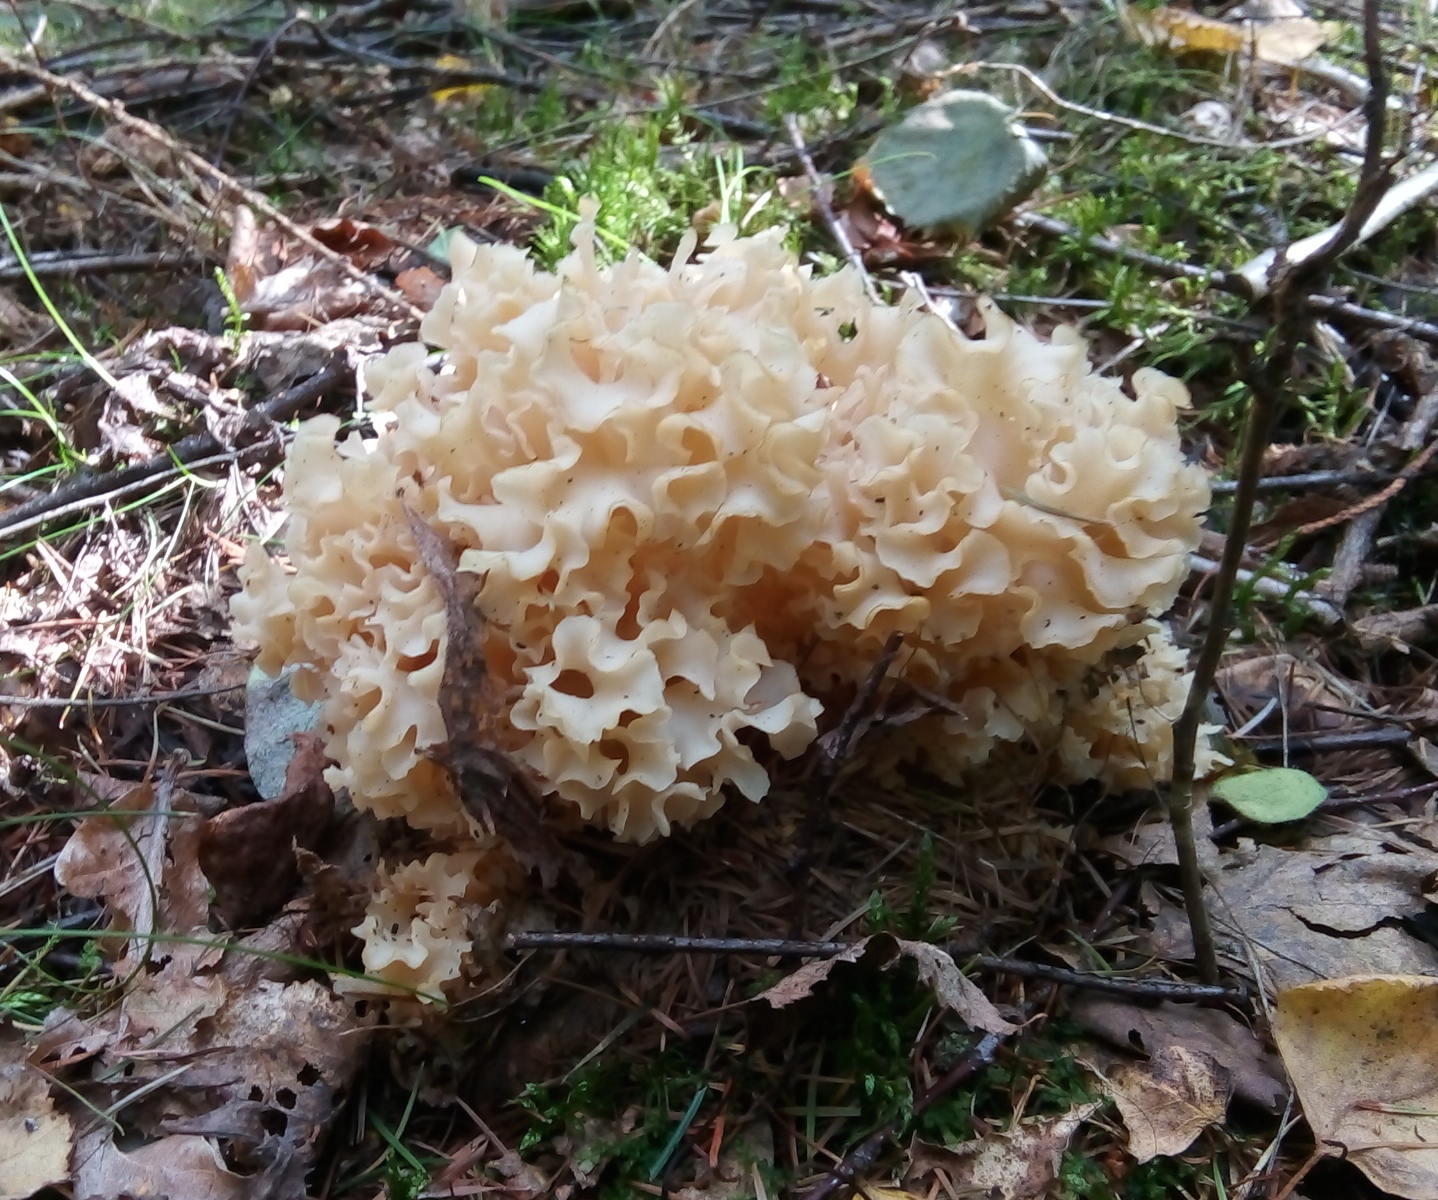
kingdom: Fungi
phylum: Basidiomycota
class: Agaricomycetes
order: Polyporales
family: Sparassidaceae
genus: Sparassis
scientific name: Sparassis crispa
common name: kruset blomkålssvamp
